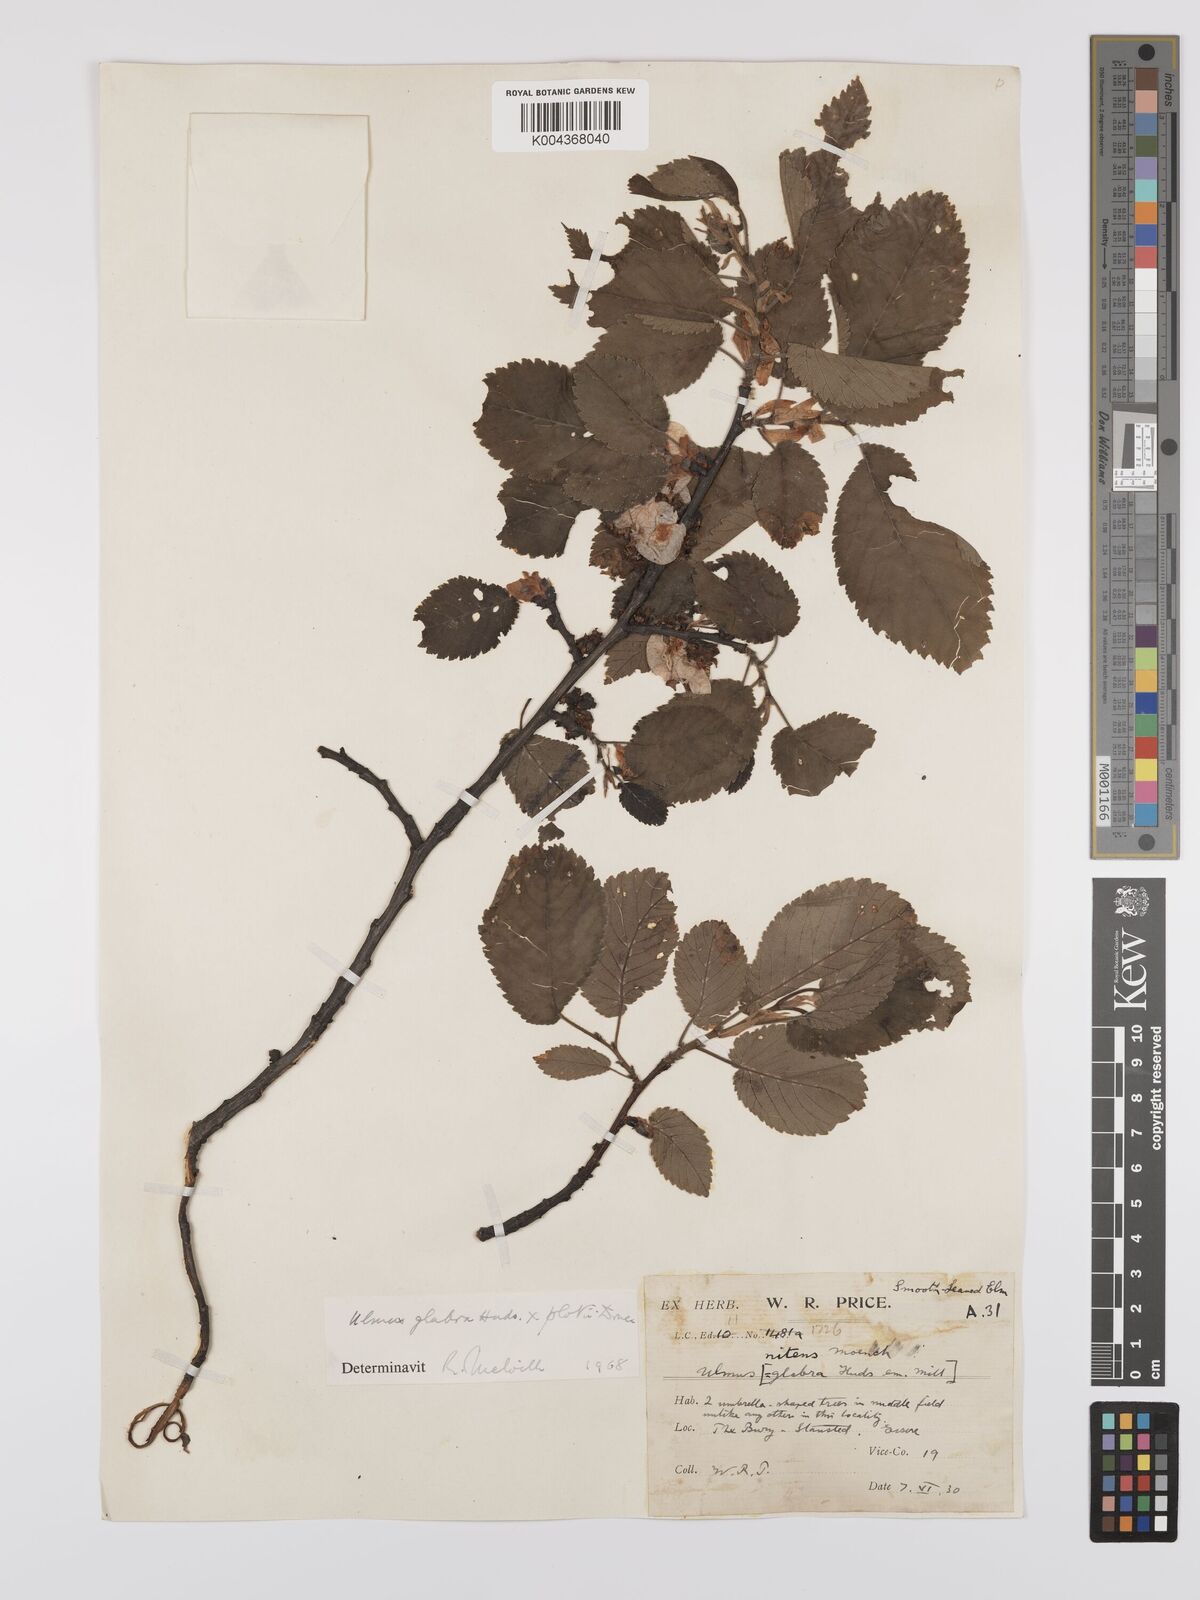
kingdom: Plantae
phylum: Tracheophyta
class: Magnoliopsida
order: Rosales
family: Ulmaceae
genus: Ulmus
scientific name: Ulmus
